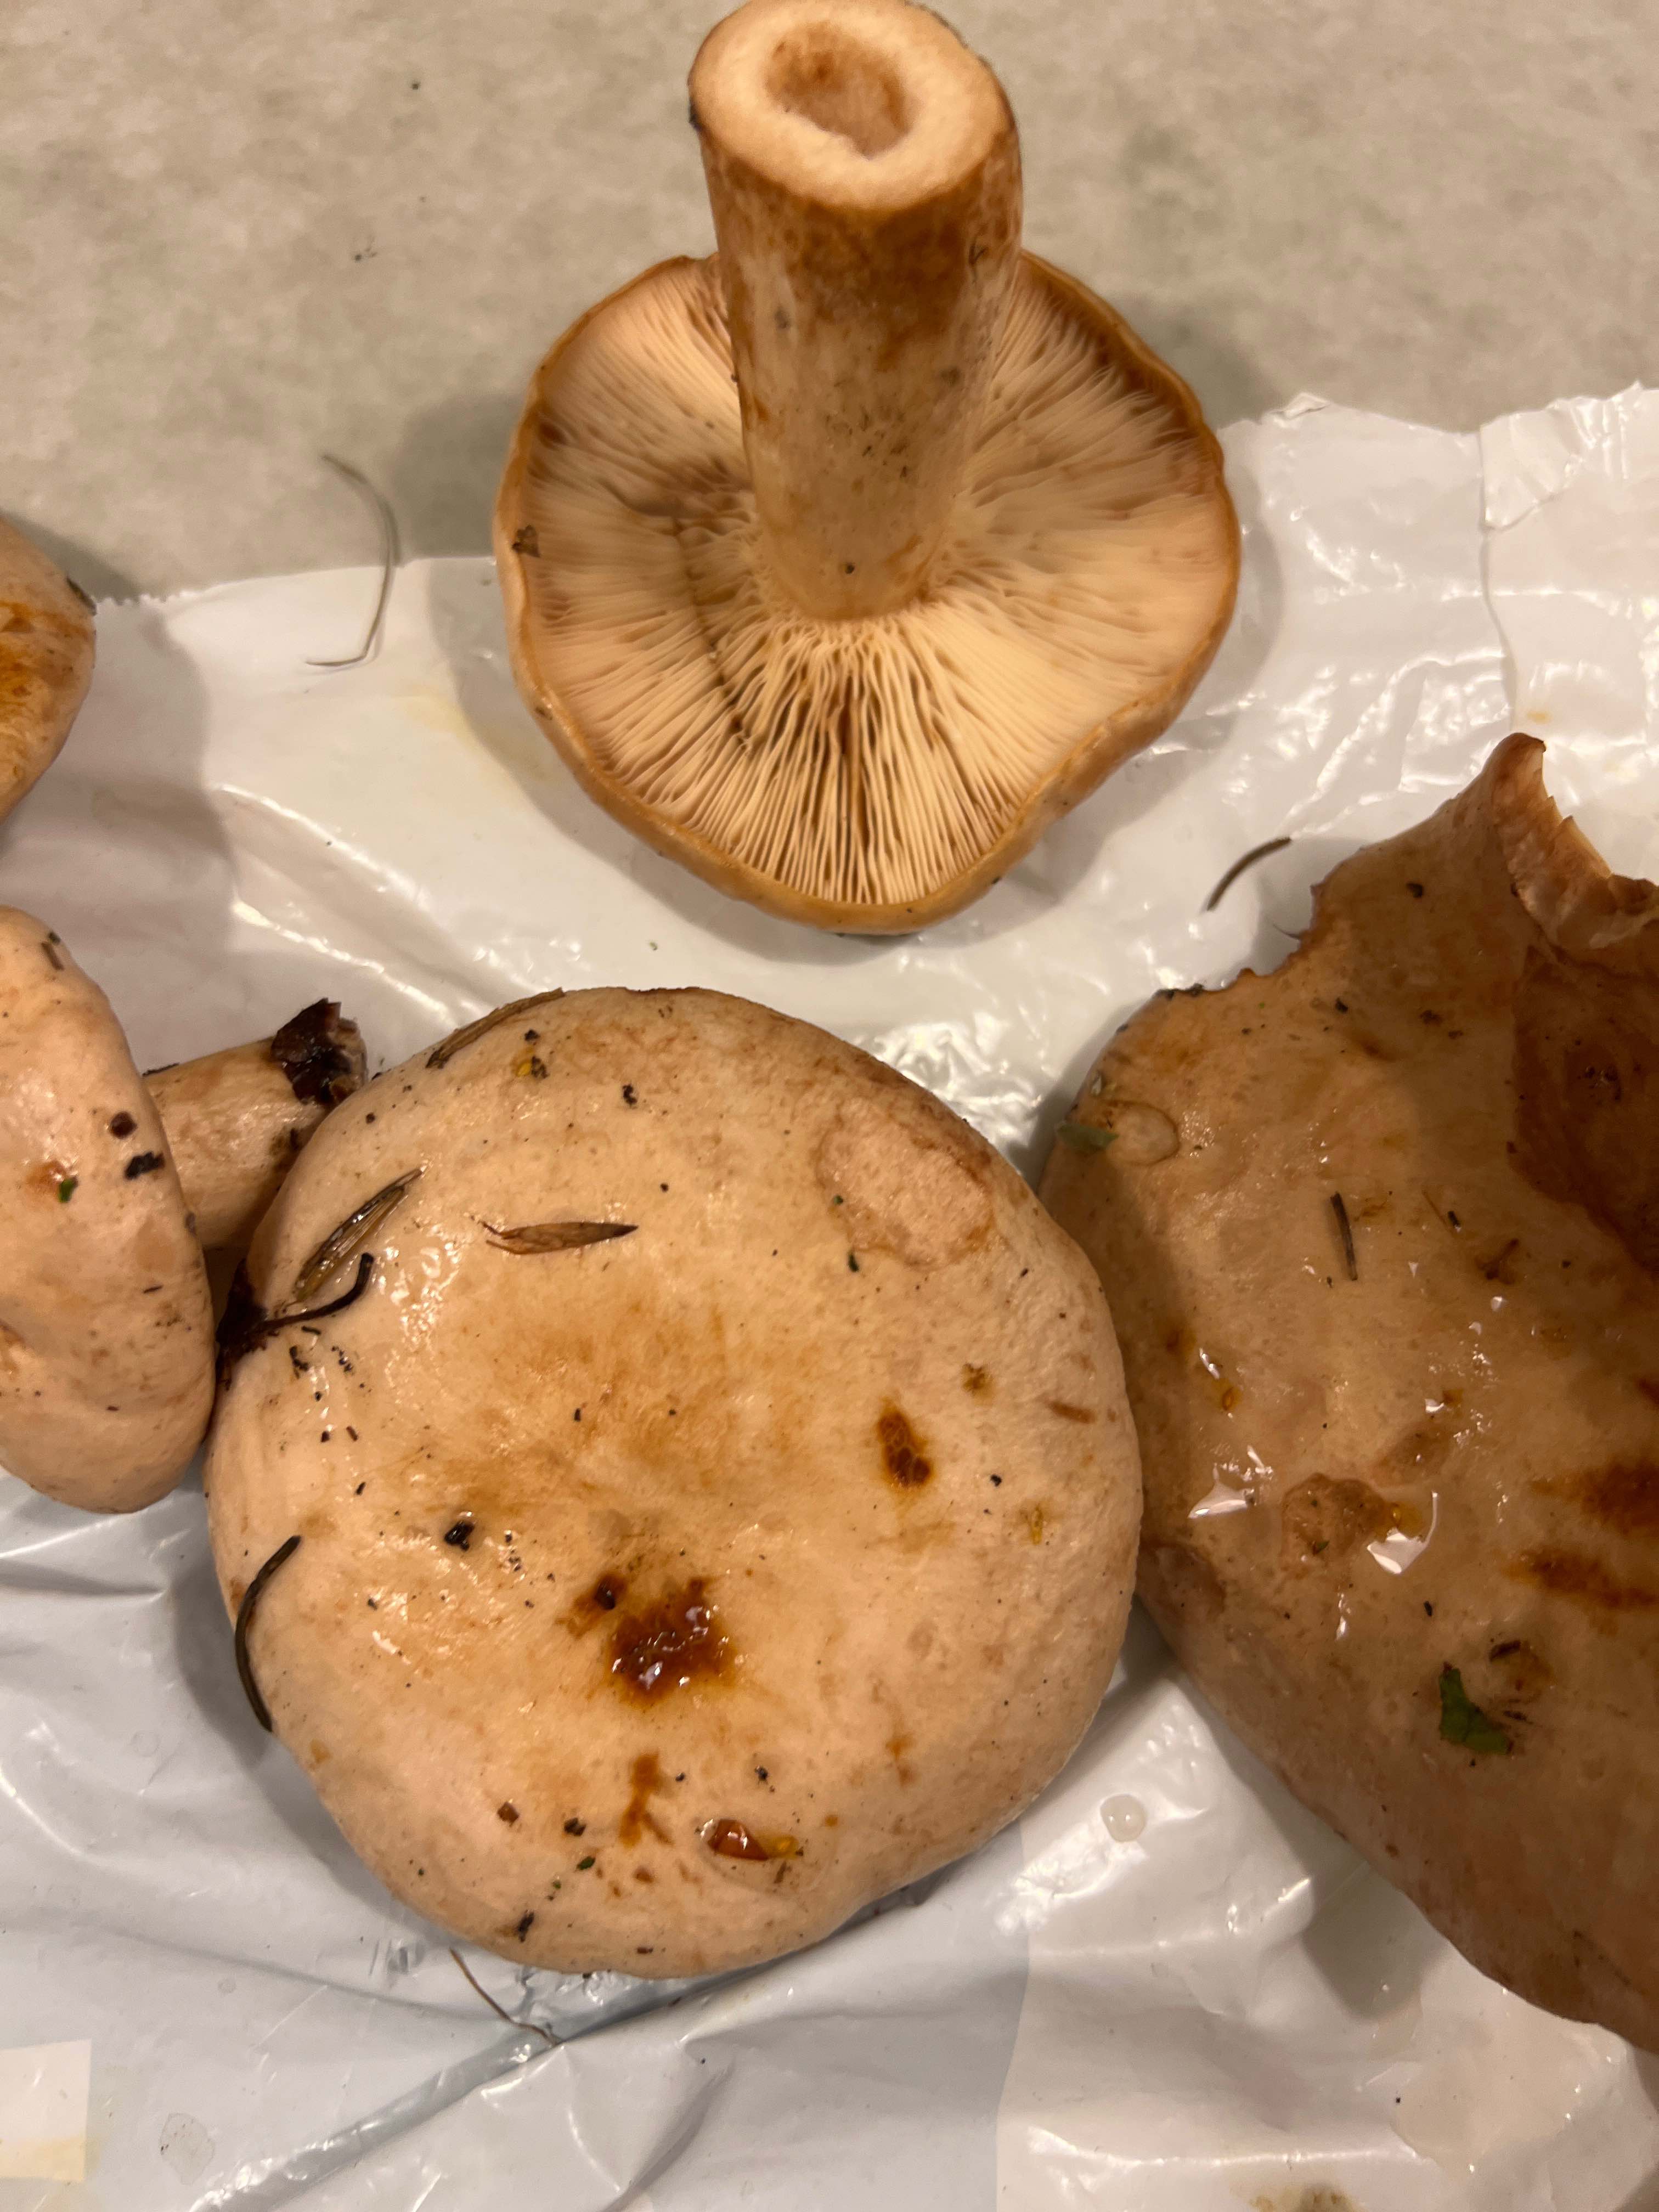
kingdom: Fungi
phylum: Basidiomycota
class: Agaricomycetes
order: Russulales
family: Russulaceae
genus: Lactarius
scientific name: Lactarius pallidus
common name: bleg mælkehat
